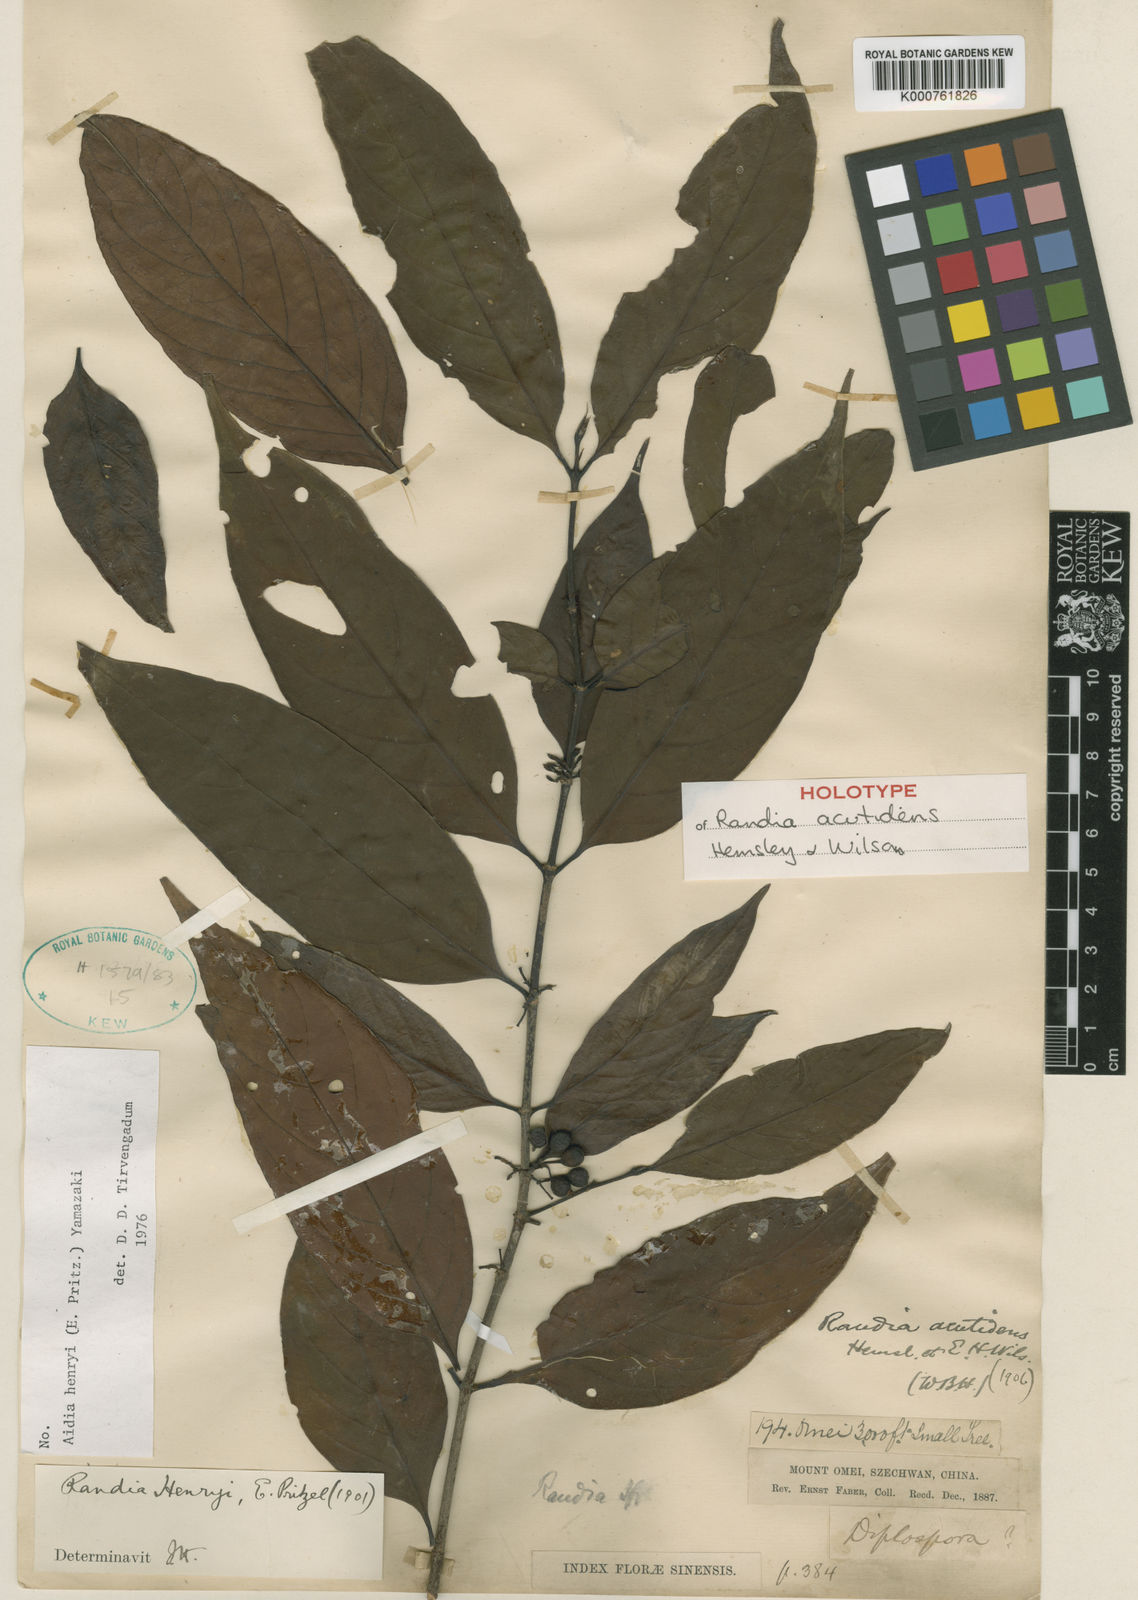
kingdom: Plantae
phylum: Tracheophyta
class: Magnoliopsida
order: Gentianales
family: Rubiaceae
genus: Aidia
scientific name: Aidia henryi
